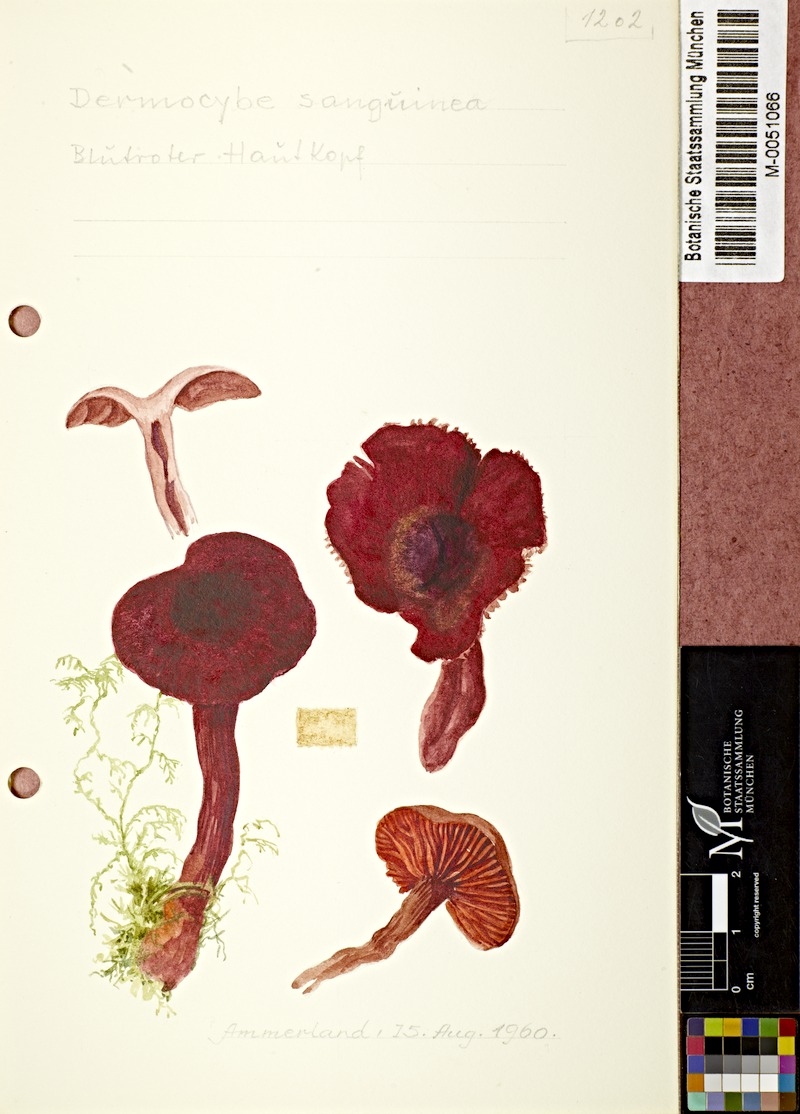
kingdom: Fungi
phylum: Basidiomycota
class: Agaricomycetes
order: Agaricales
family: Cortinariaceae
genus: Cortinarius
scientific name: Cortinarius sanguineus
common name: Bloodred webcap
